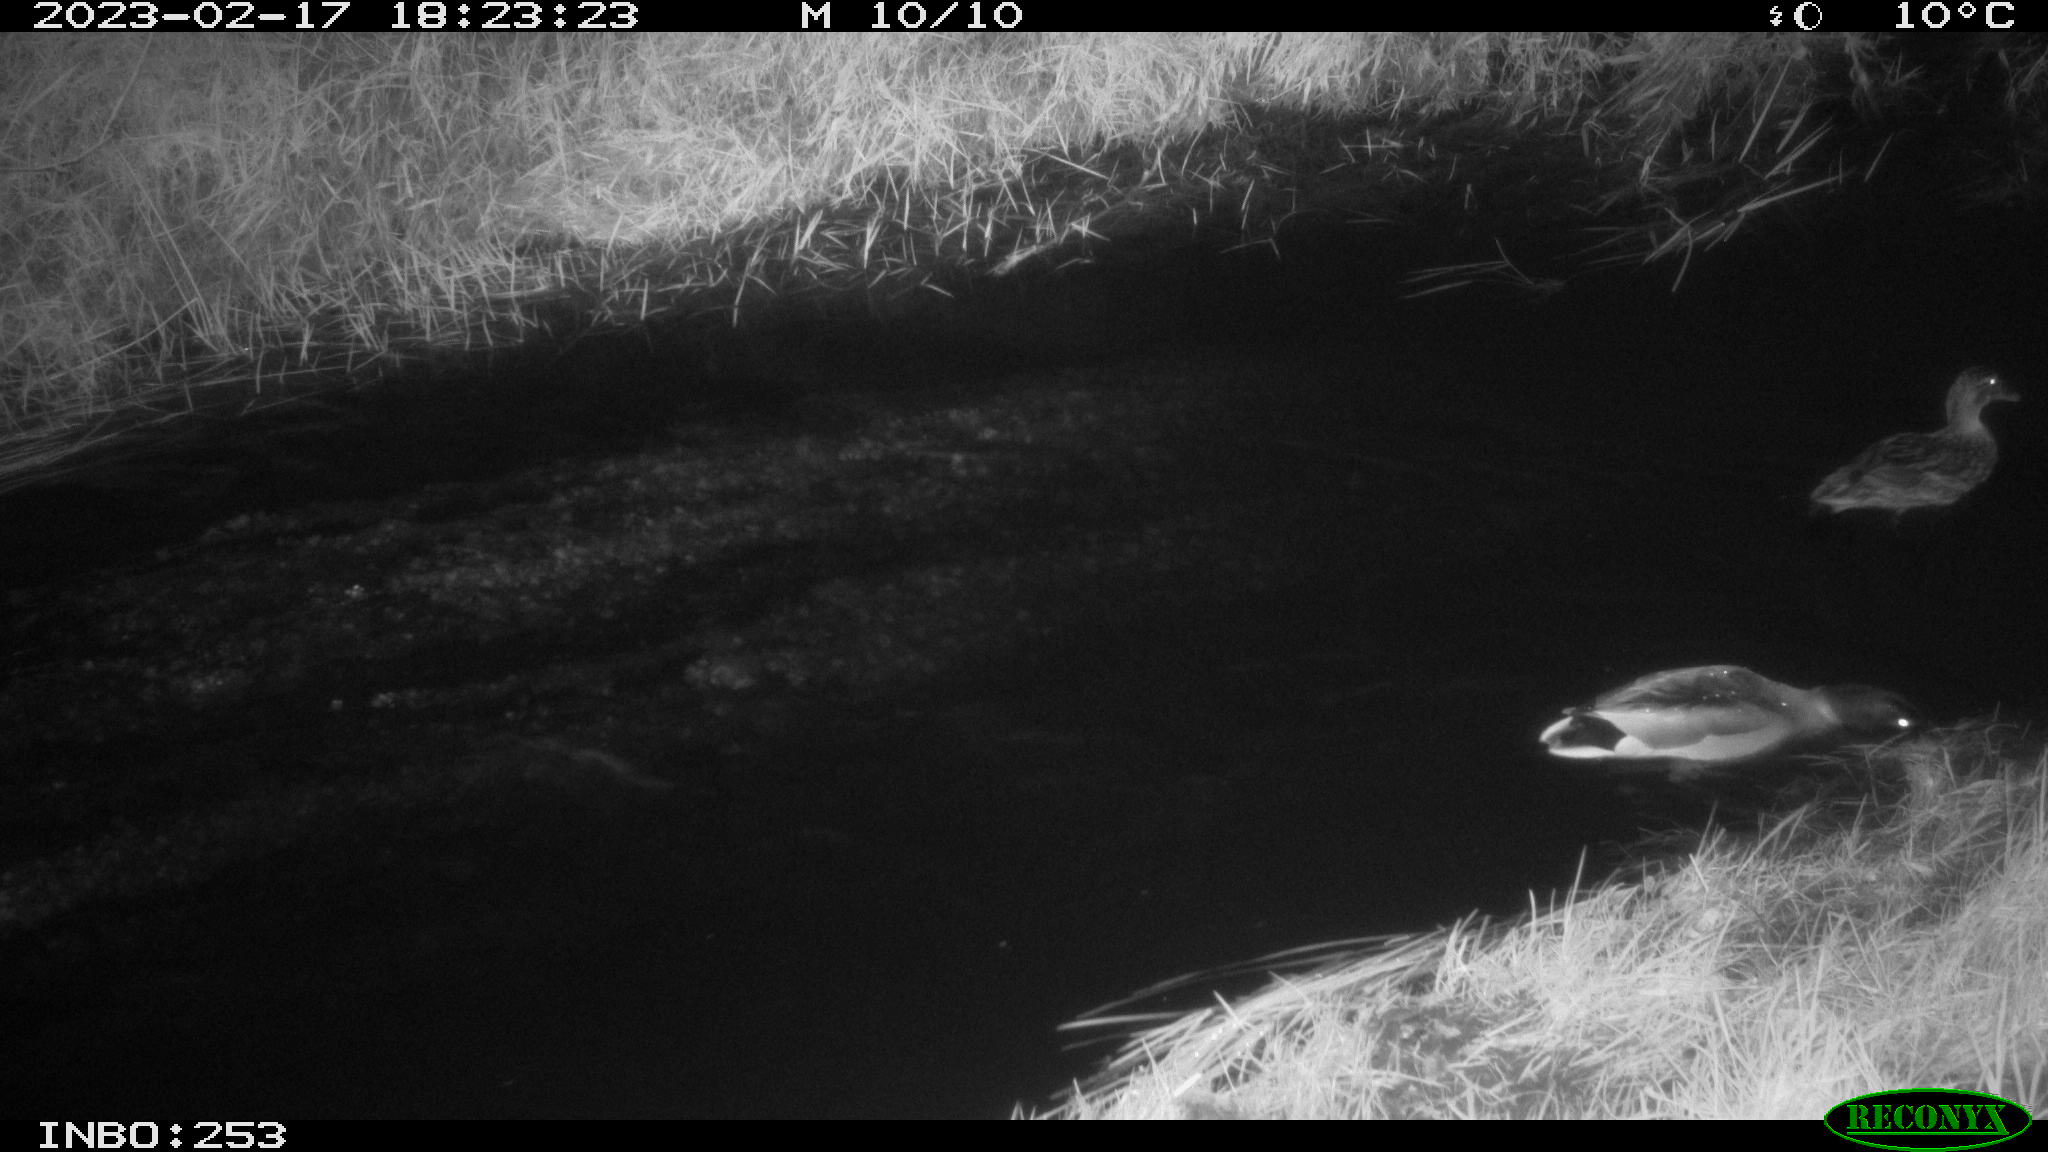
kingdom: Animalia
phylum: Chordata
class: Aves
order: Anseriformes
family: Anatidae
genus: Anas
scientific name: Anas
